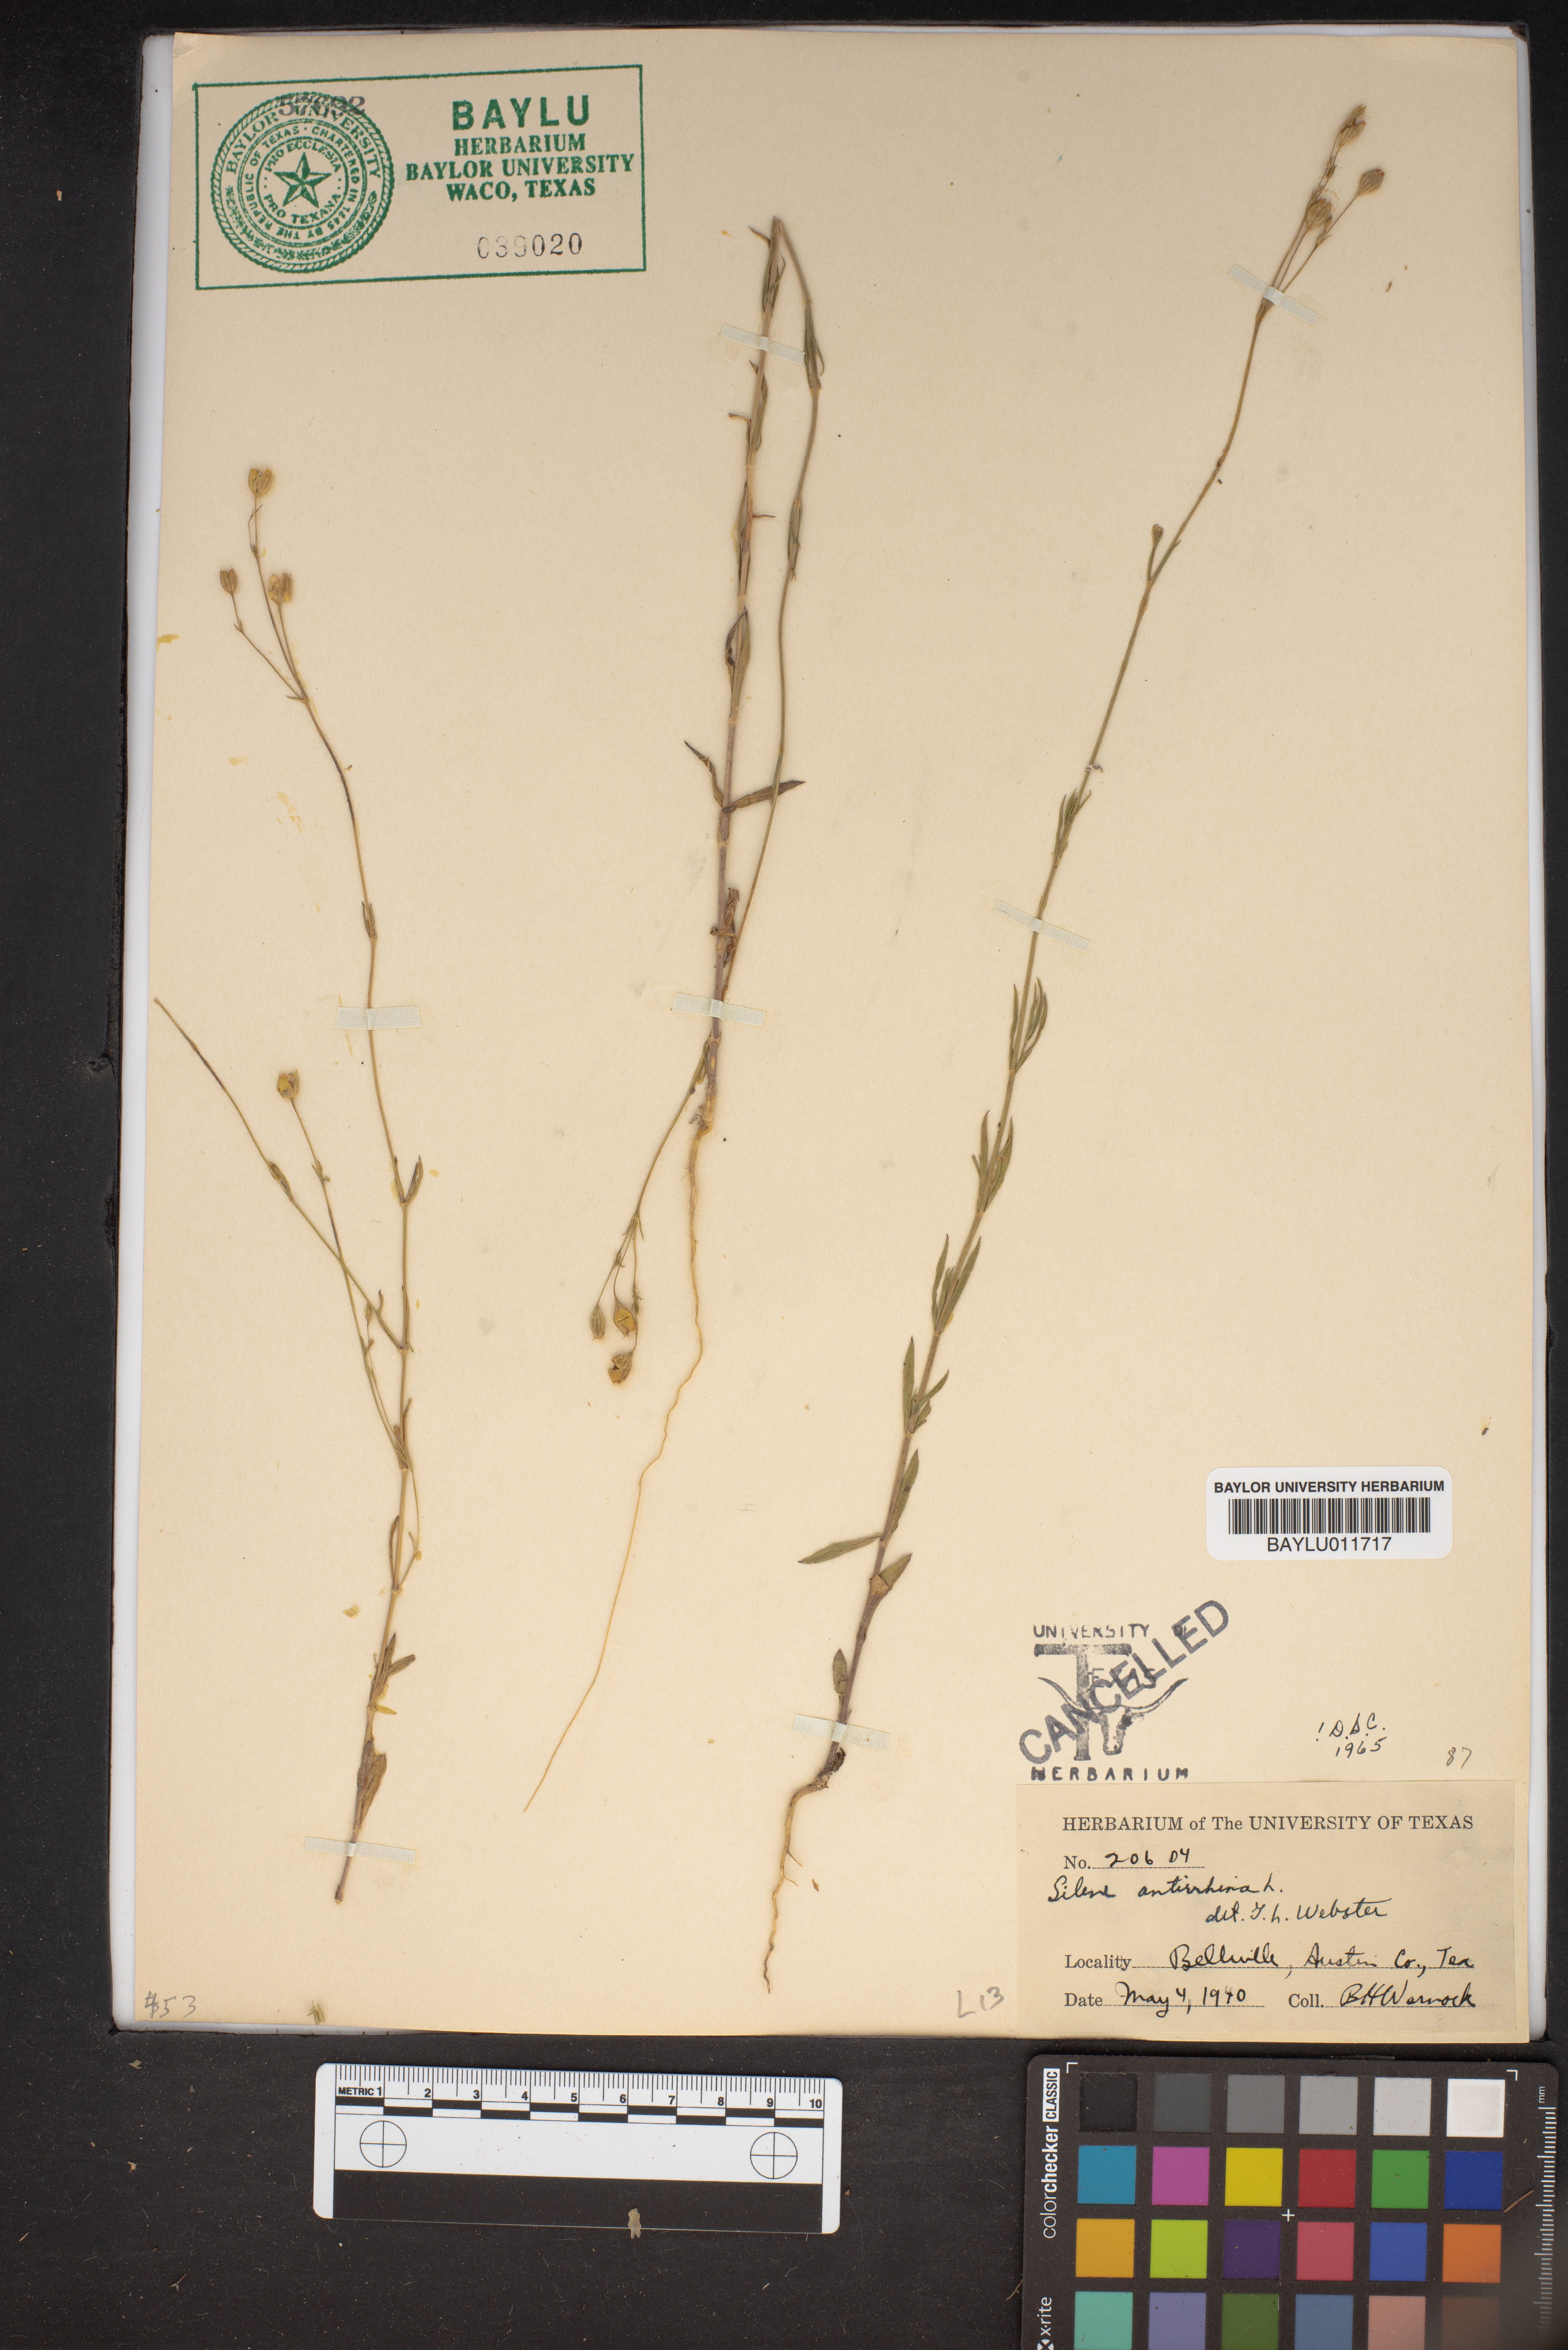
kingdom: Plantae
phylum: Tracheophyta
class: Magnoliopsida
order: Caryophyllales
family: Caryophyllaceae
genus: Silene
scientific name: Silene antirrhina
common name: Sleepy catchfly
